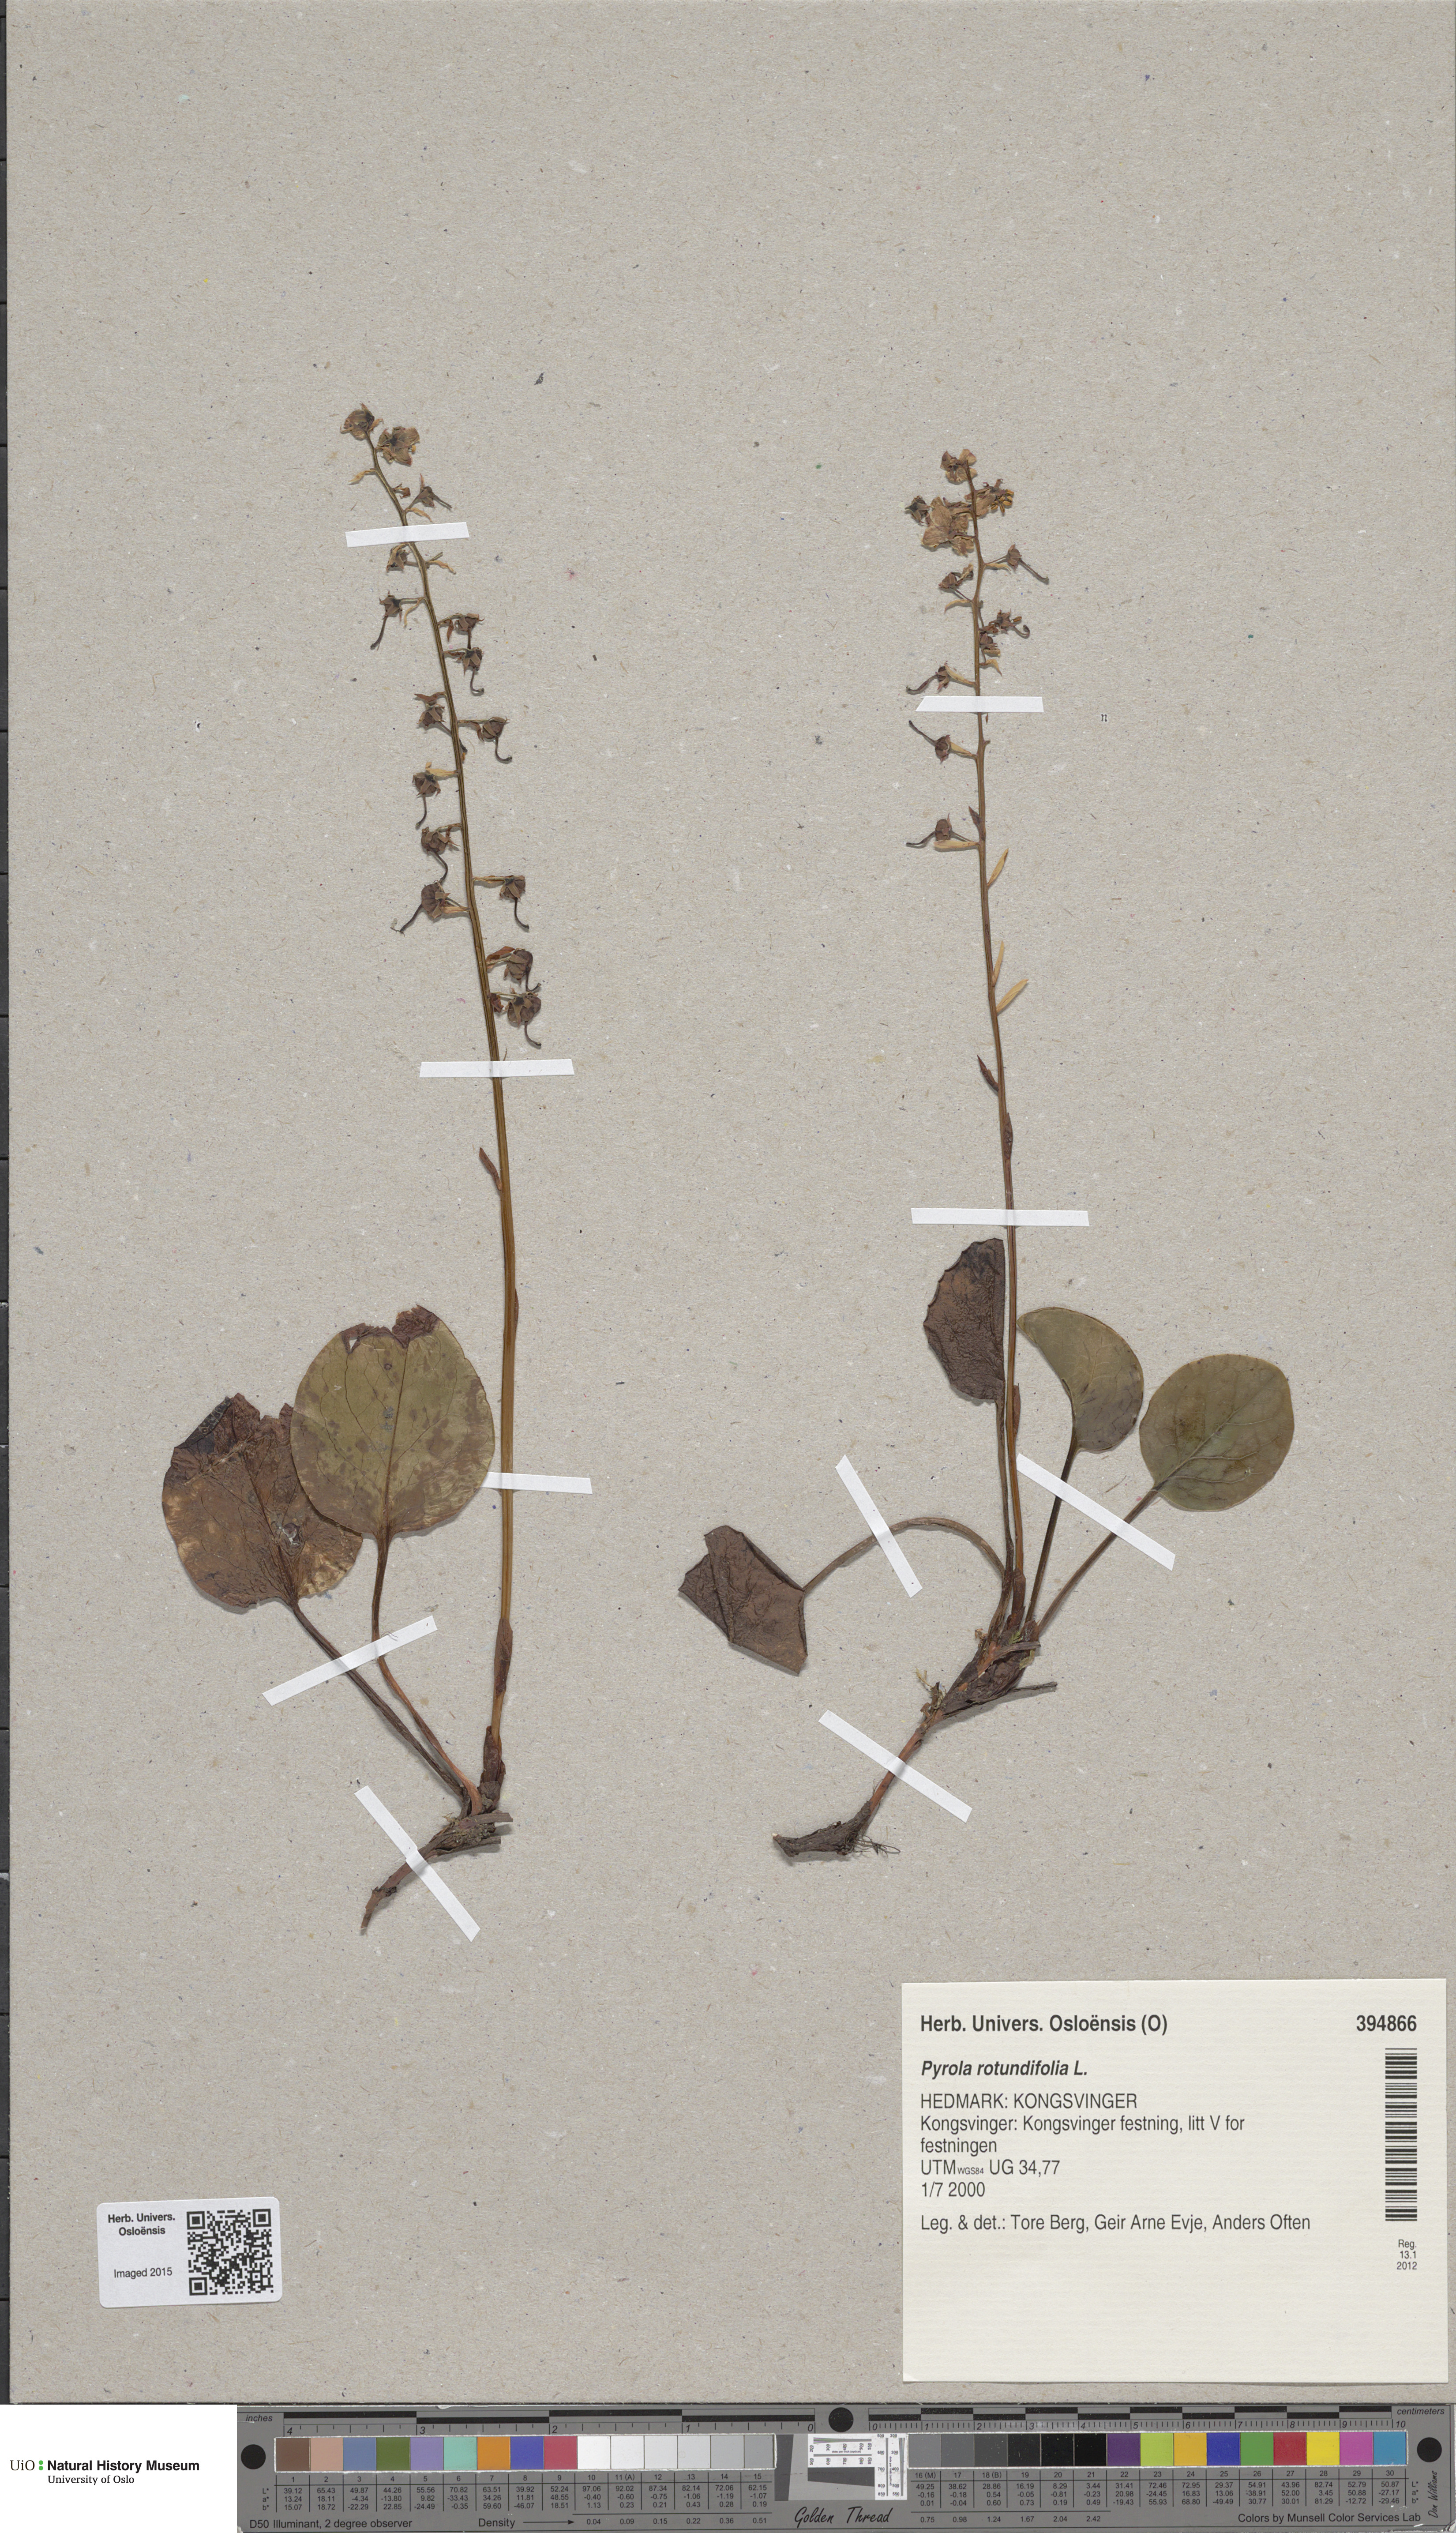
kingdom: Plantae
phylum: Tracheophyta
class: Magnoliopsida
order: Ericales
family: Ericaceae
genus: Pyrola
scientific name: Pyrola rotundifolia
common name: Round-leaved wintergreen
